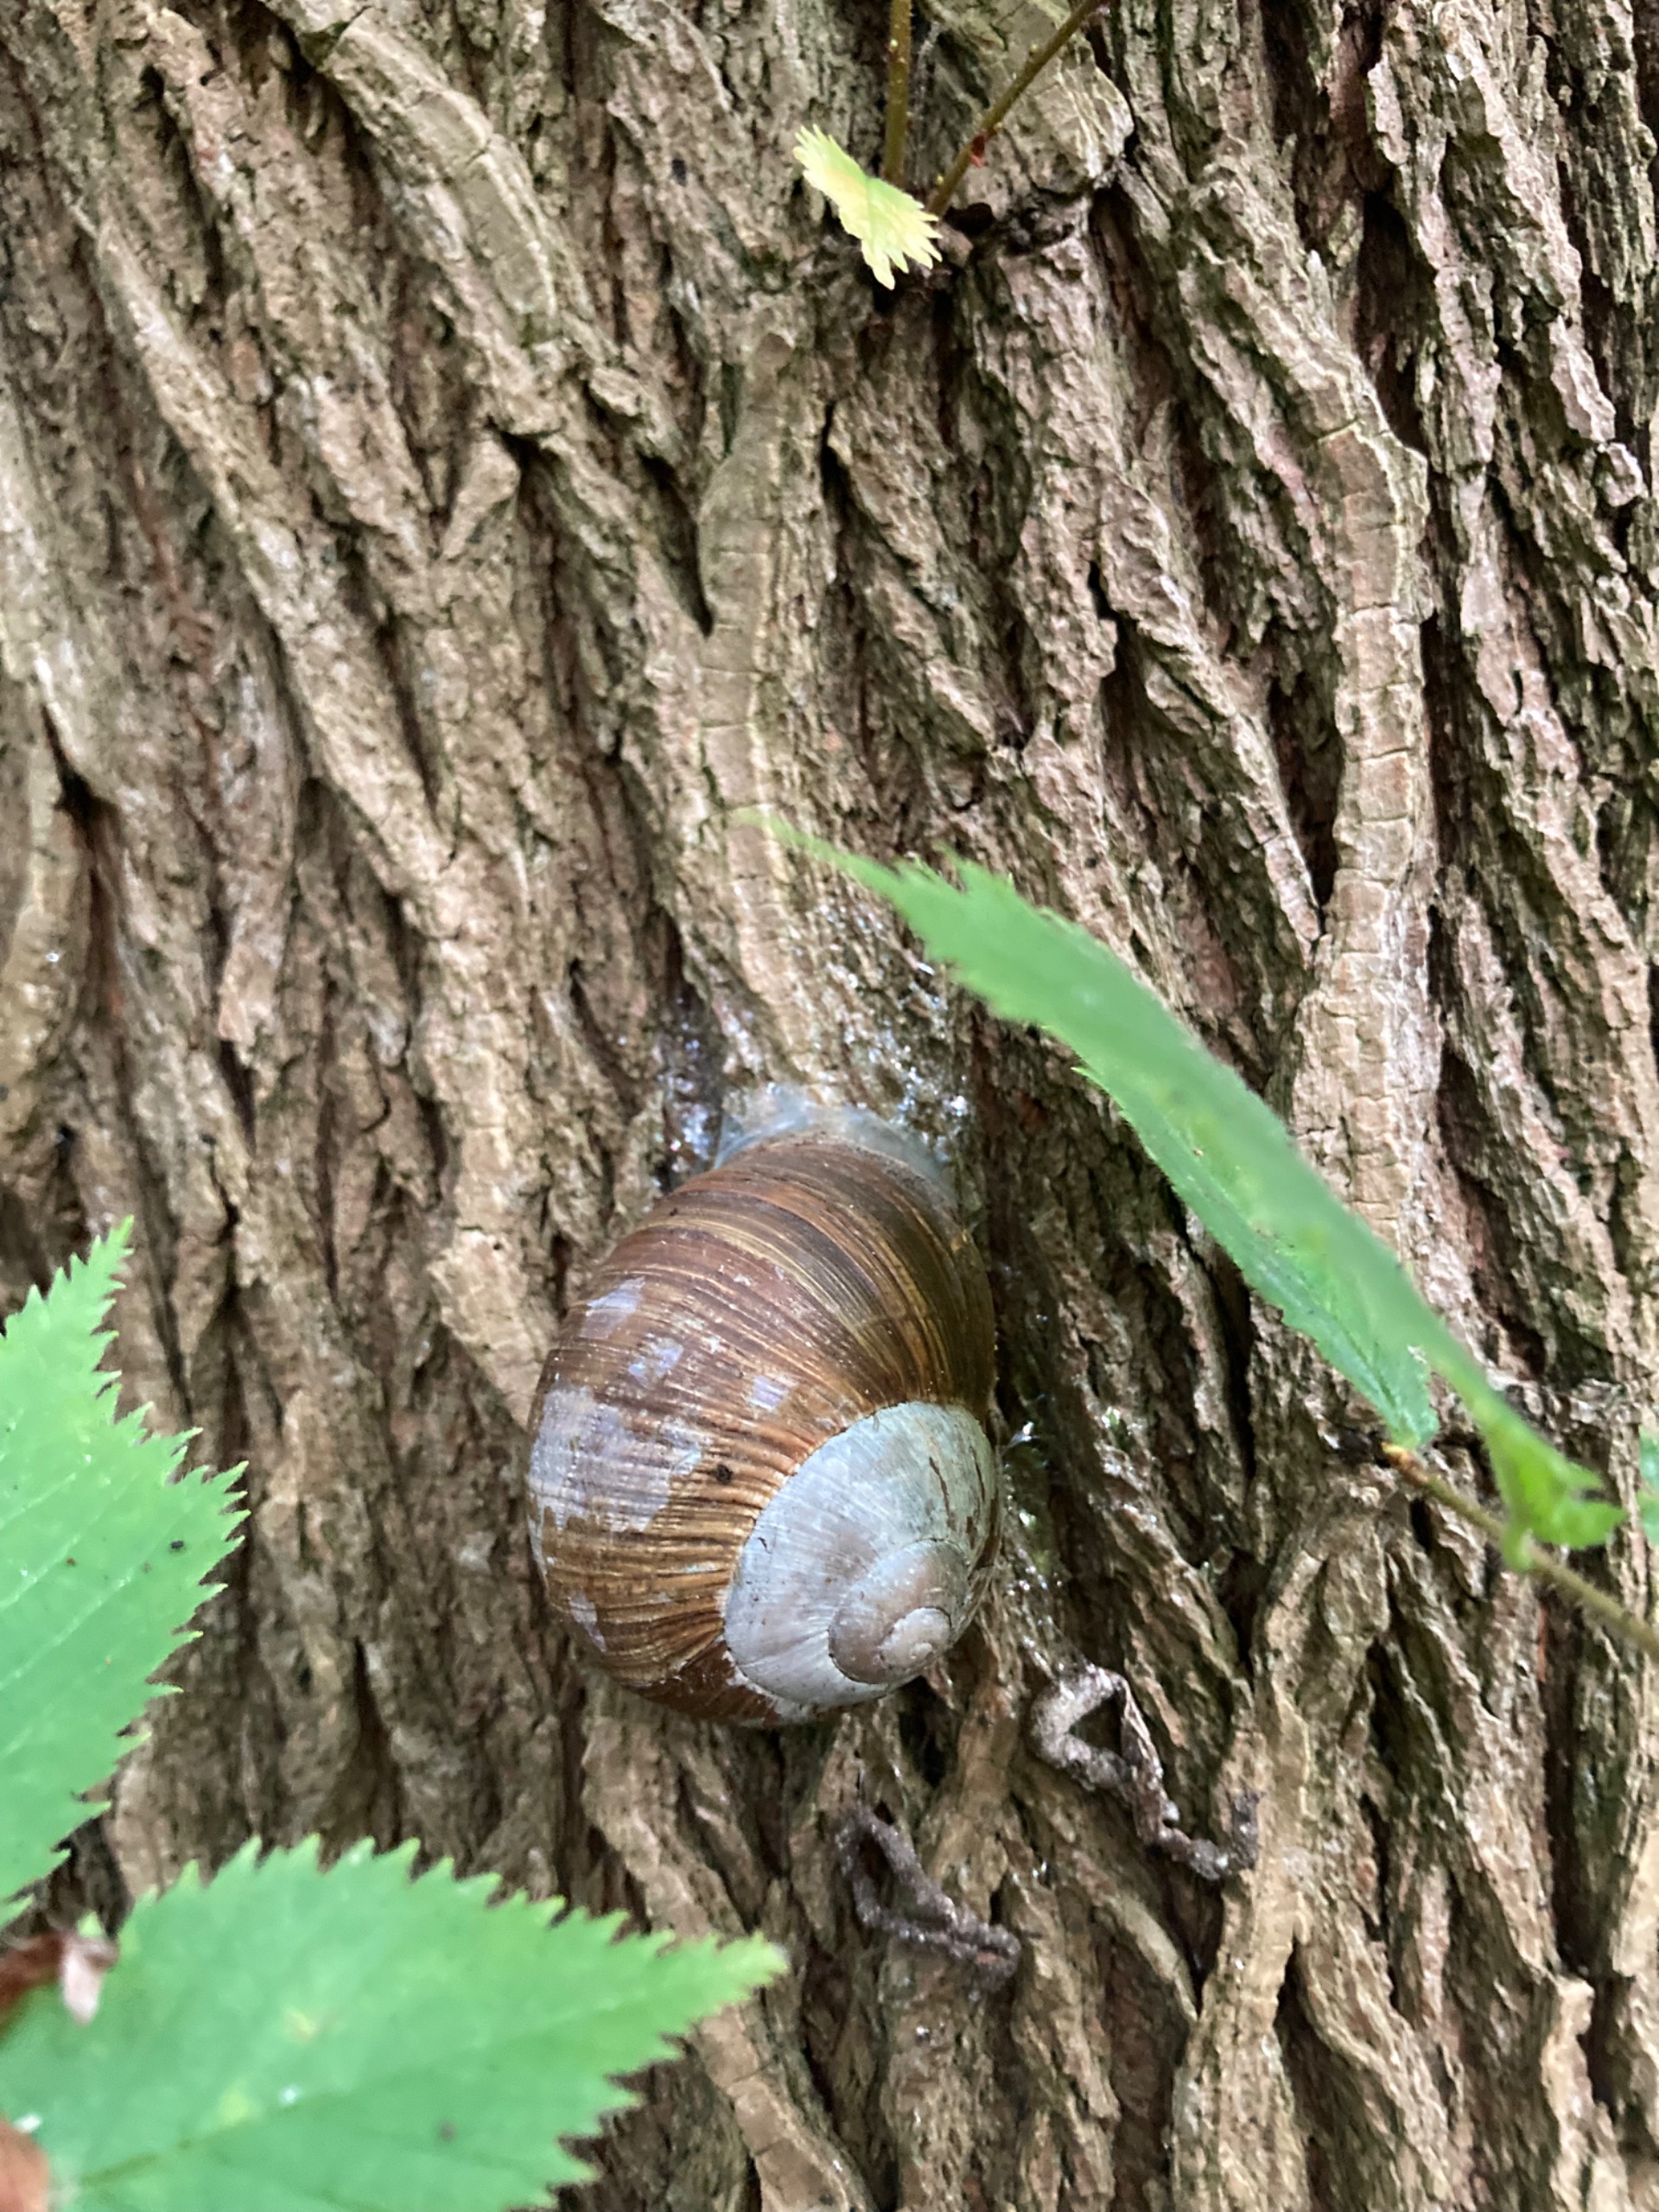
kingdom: Animalia
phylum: Mollusca
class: Gastropoda
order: Stylommatophora
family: Helicidae
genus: Helix
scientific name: Helix pomatia
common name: Vinbjergsnegl
